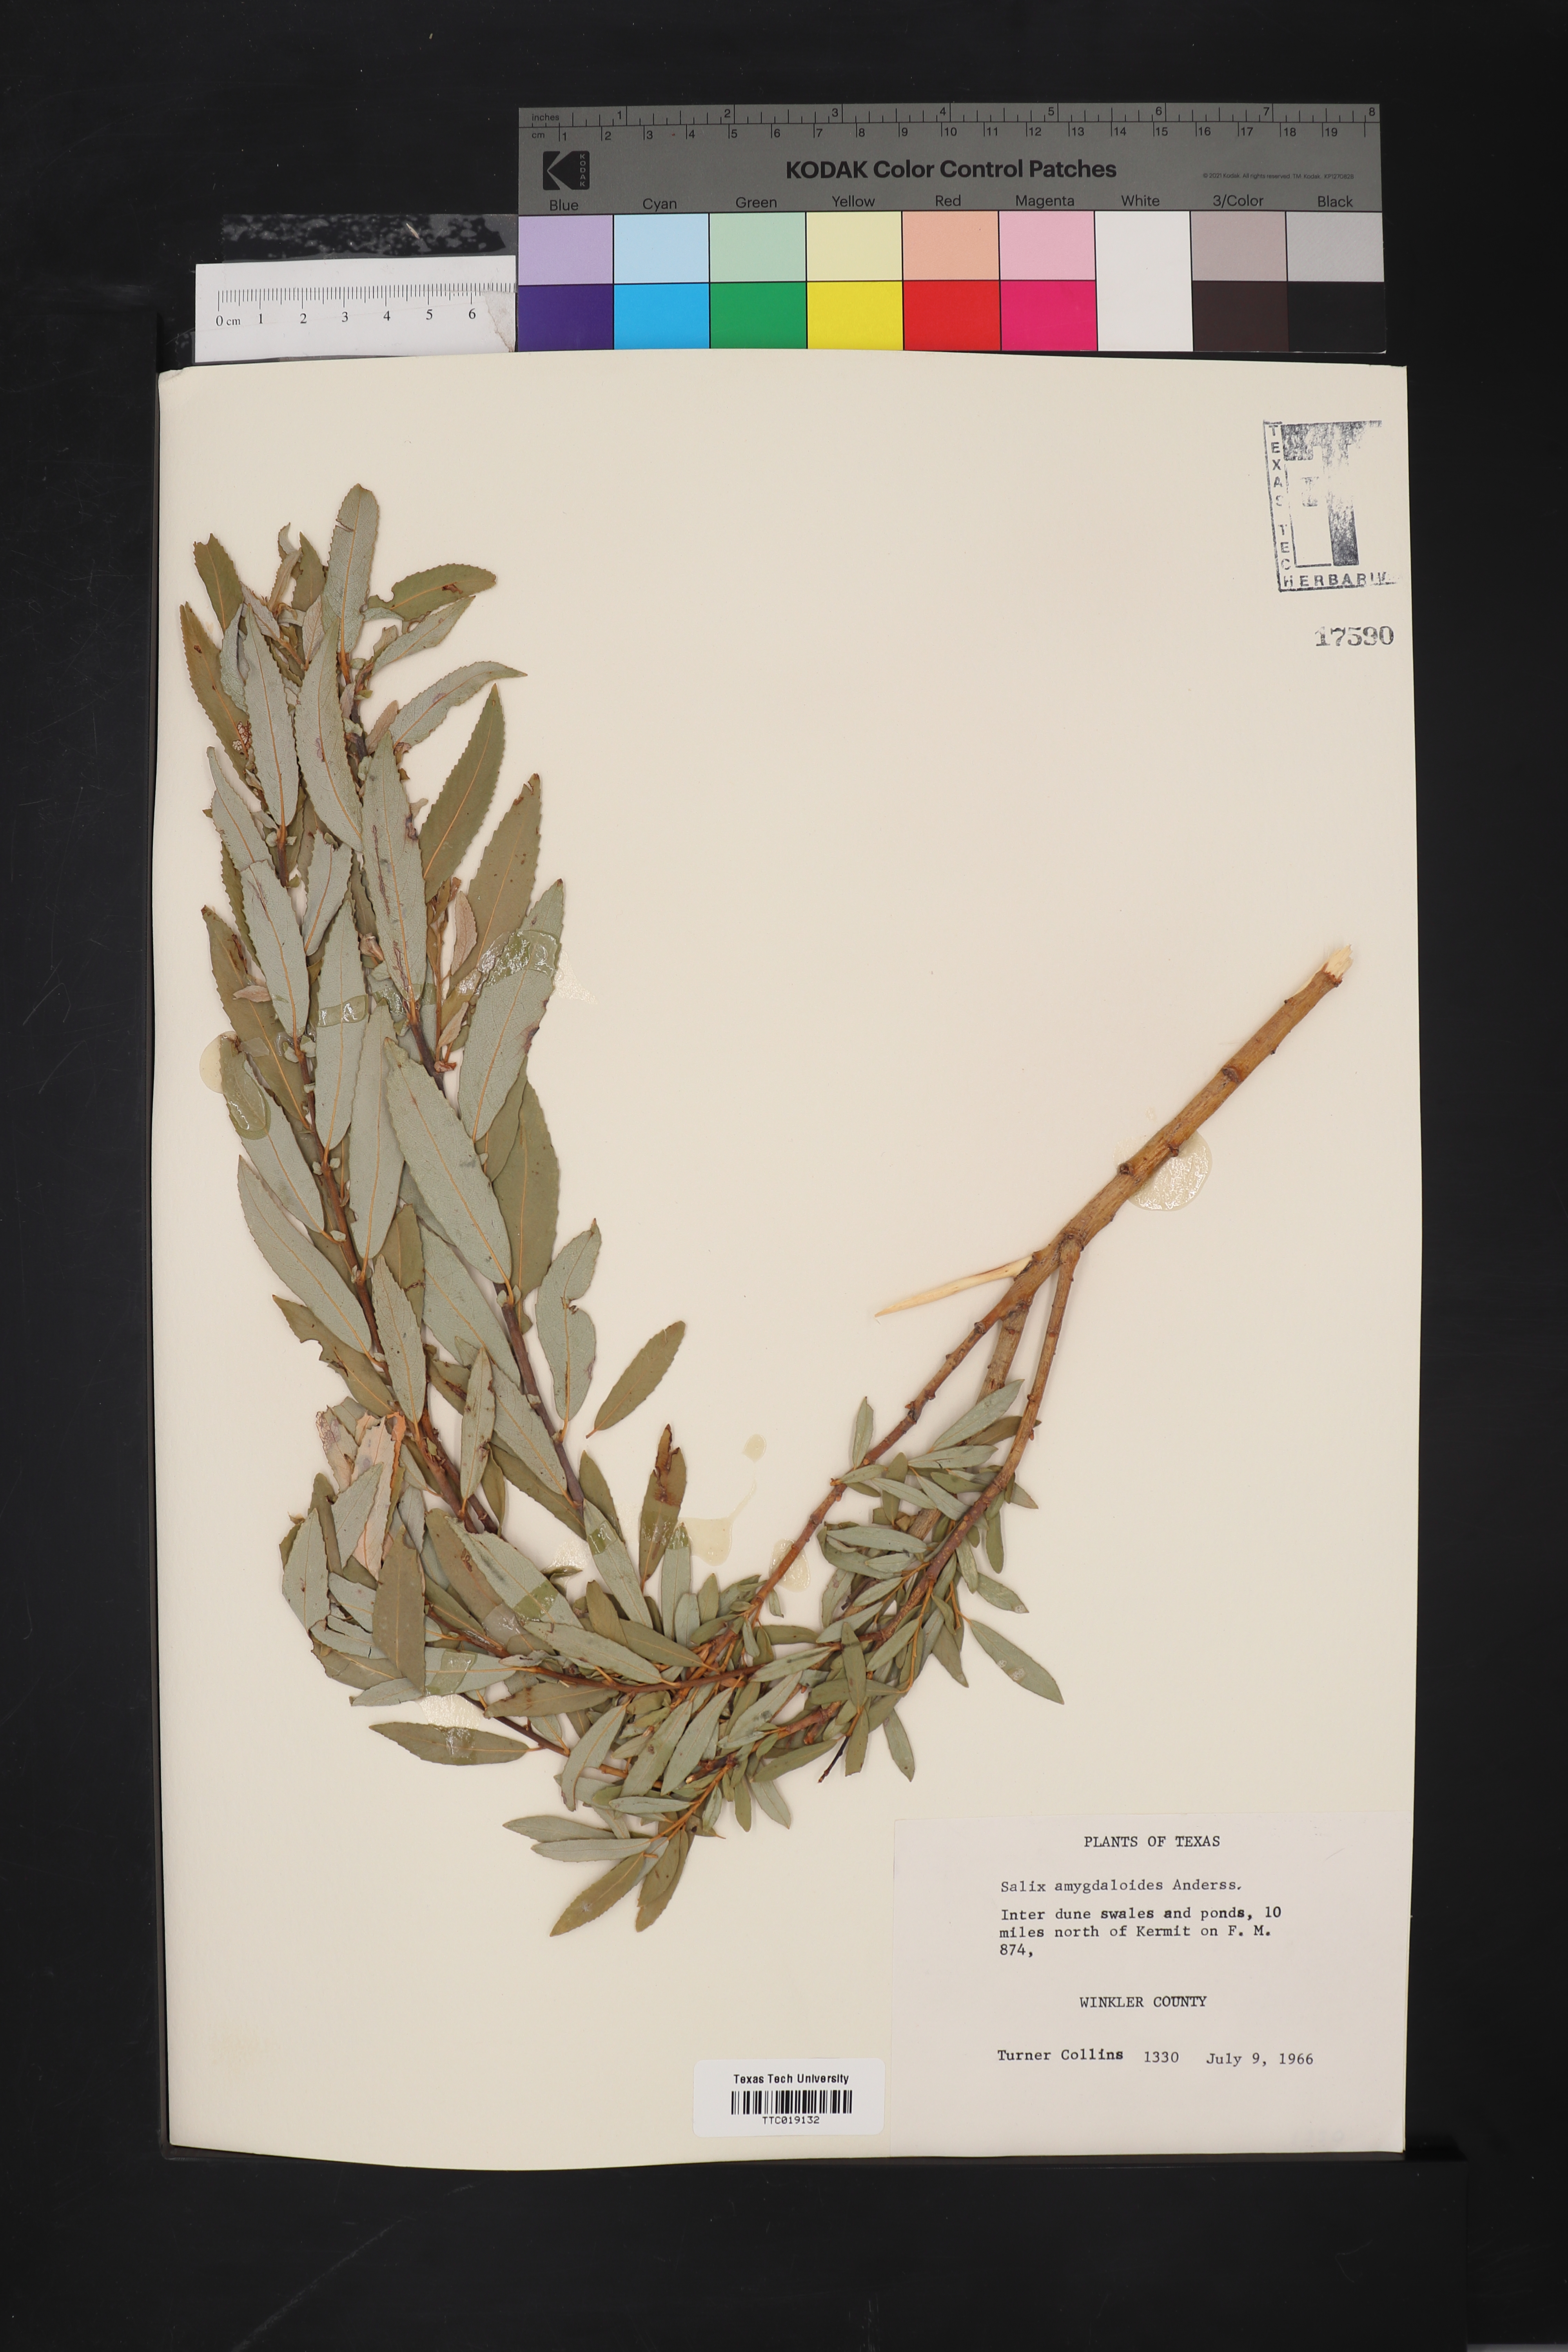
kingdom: Plantae
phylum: Tracheophyta
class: Magnoliopsida
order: Malpighiales
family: Salicaceae
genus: Salix
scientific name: Salix amygdaloides
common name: Peach leaf willow
